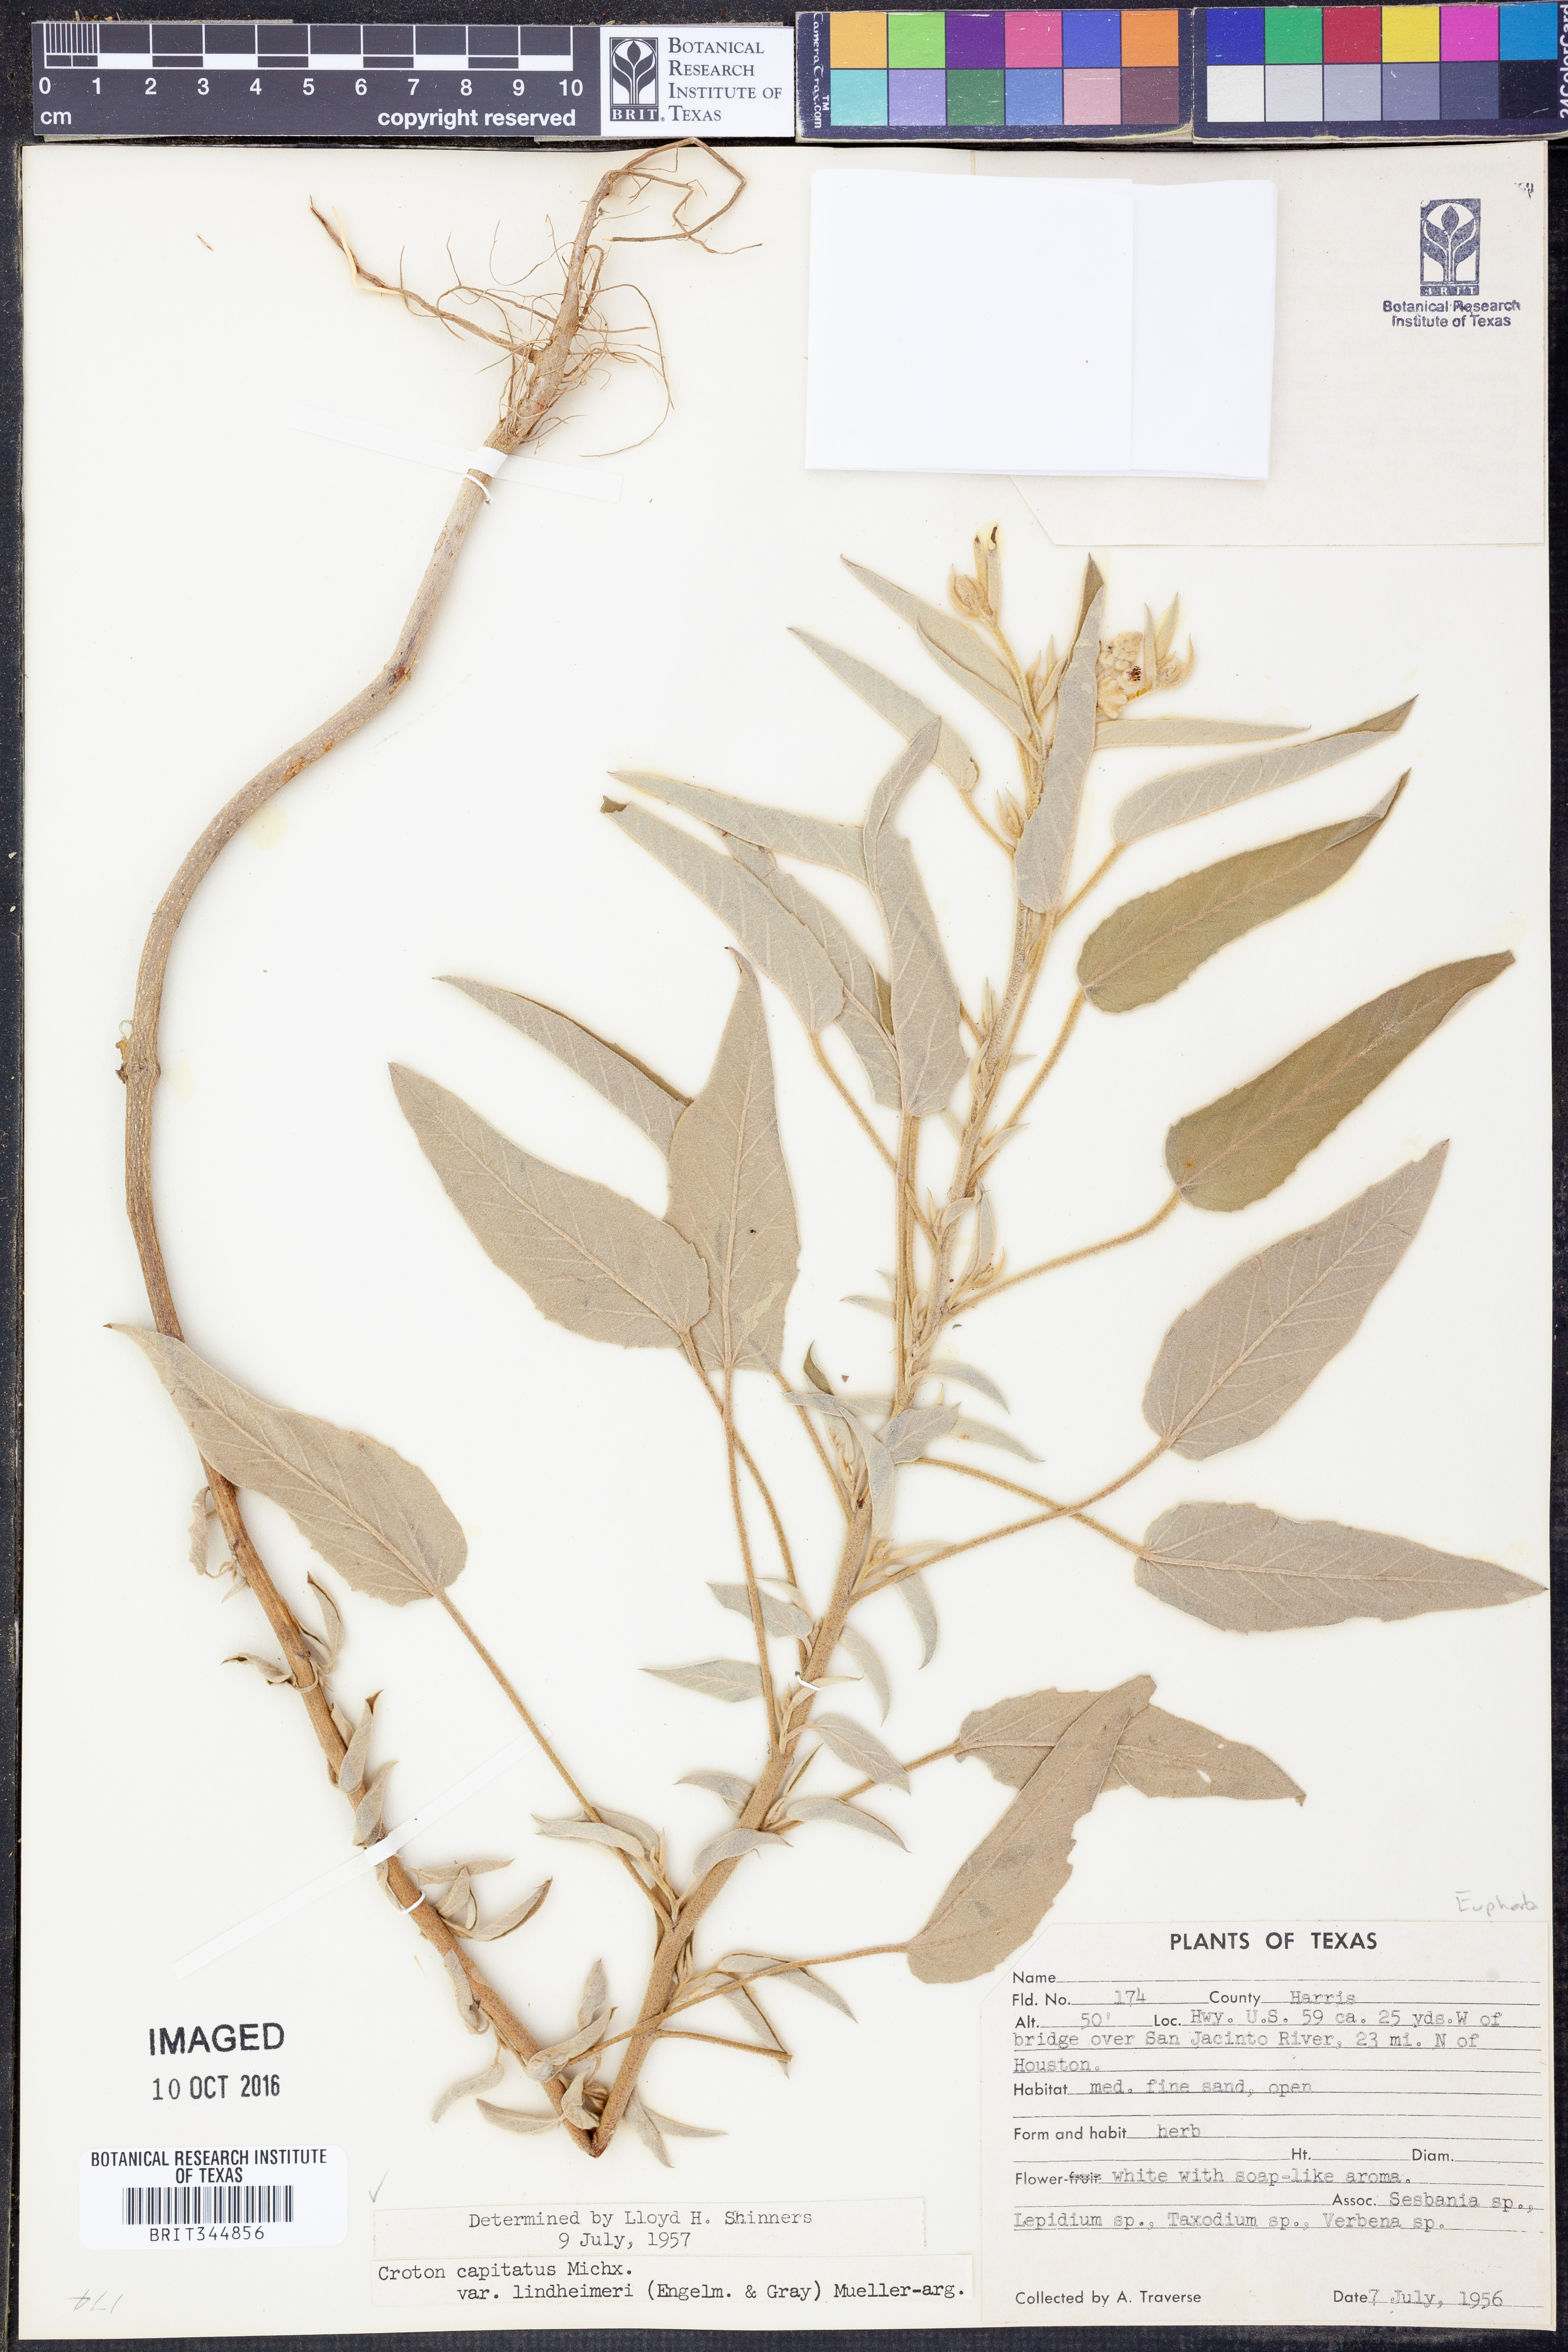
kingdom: Plantae
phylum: Tracheophyta
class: Magnoliopsida
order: Malpighiales
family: Euphorbiaceae
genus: Croton
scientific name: Croton lindheimeri
